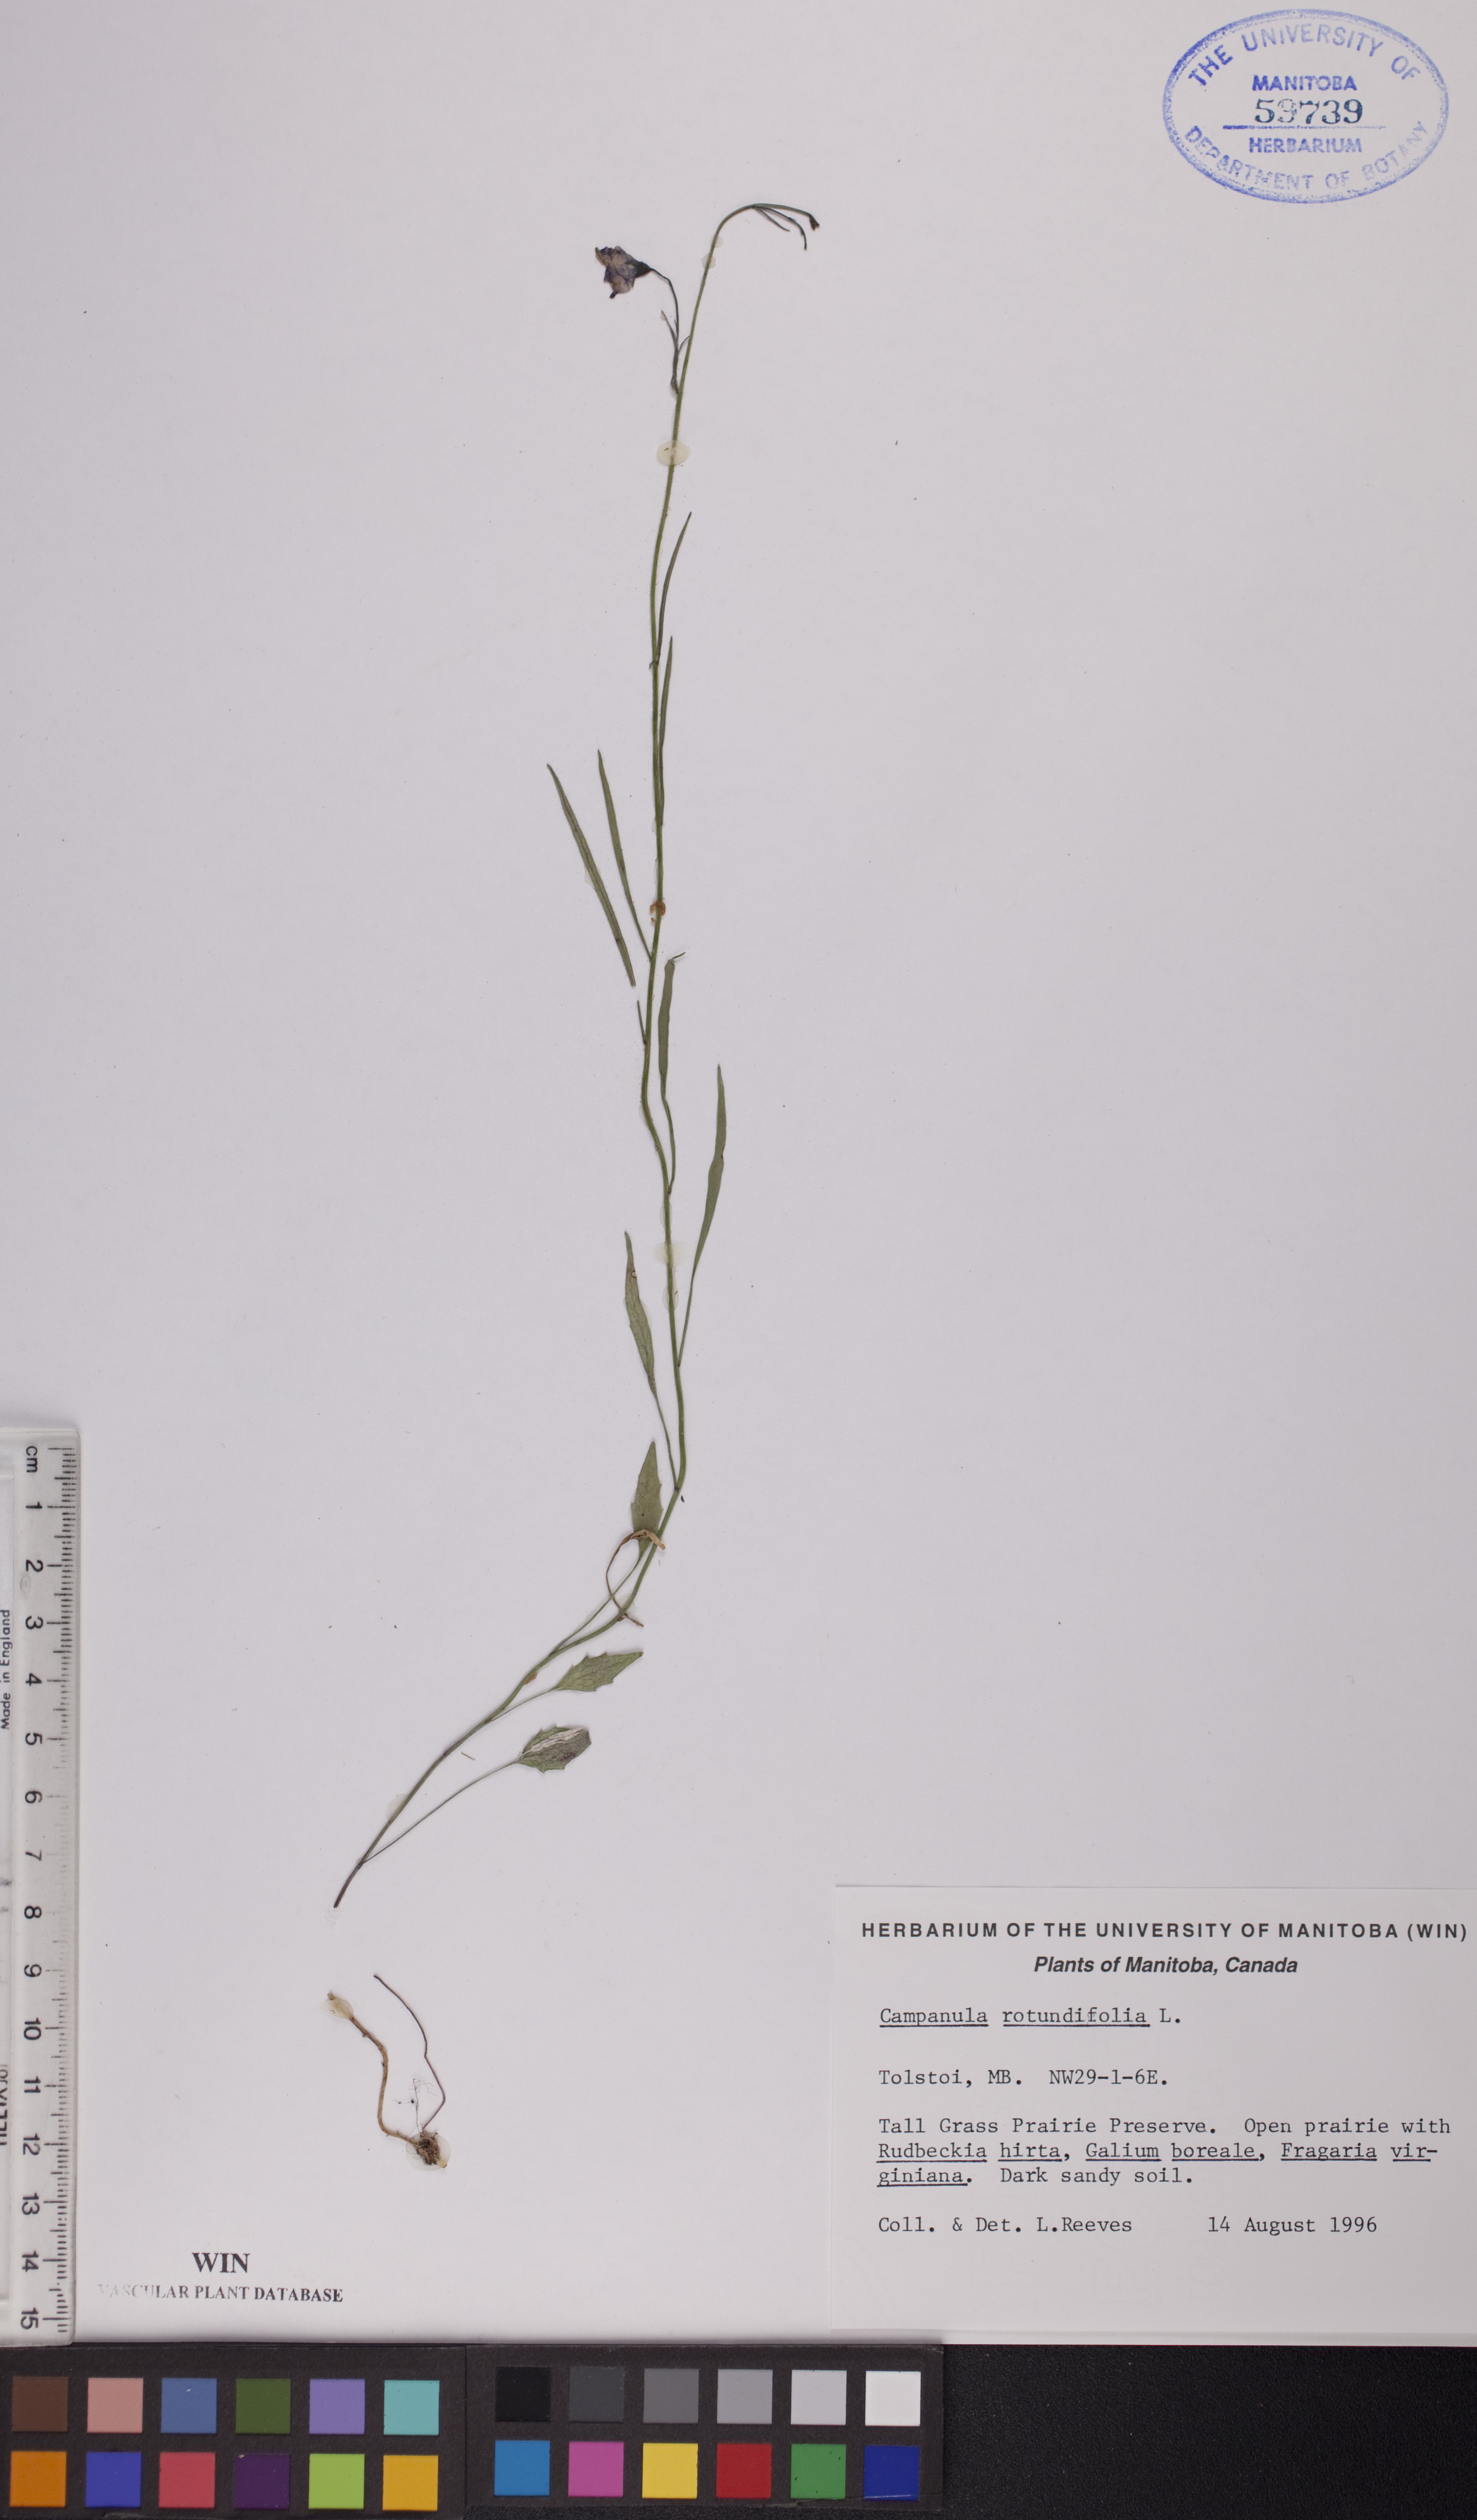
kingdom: Plantae
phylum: Tracheophyta
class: Magnoliopsida
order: Asterales
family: Campanulaceae
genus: Campanula
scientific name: Campanula rotundifolia
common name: Harebell
